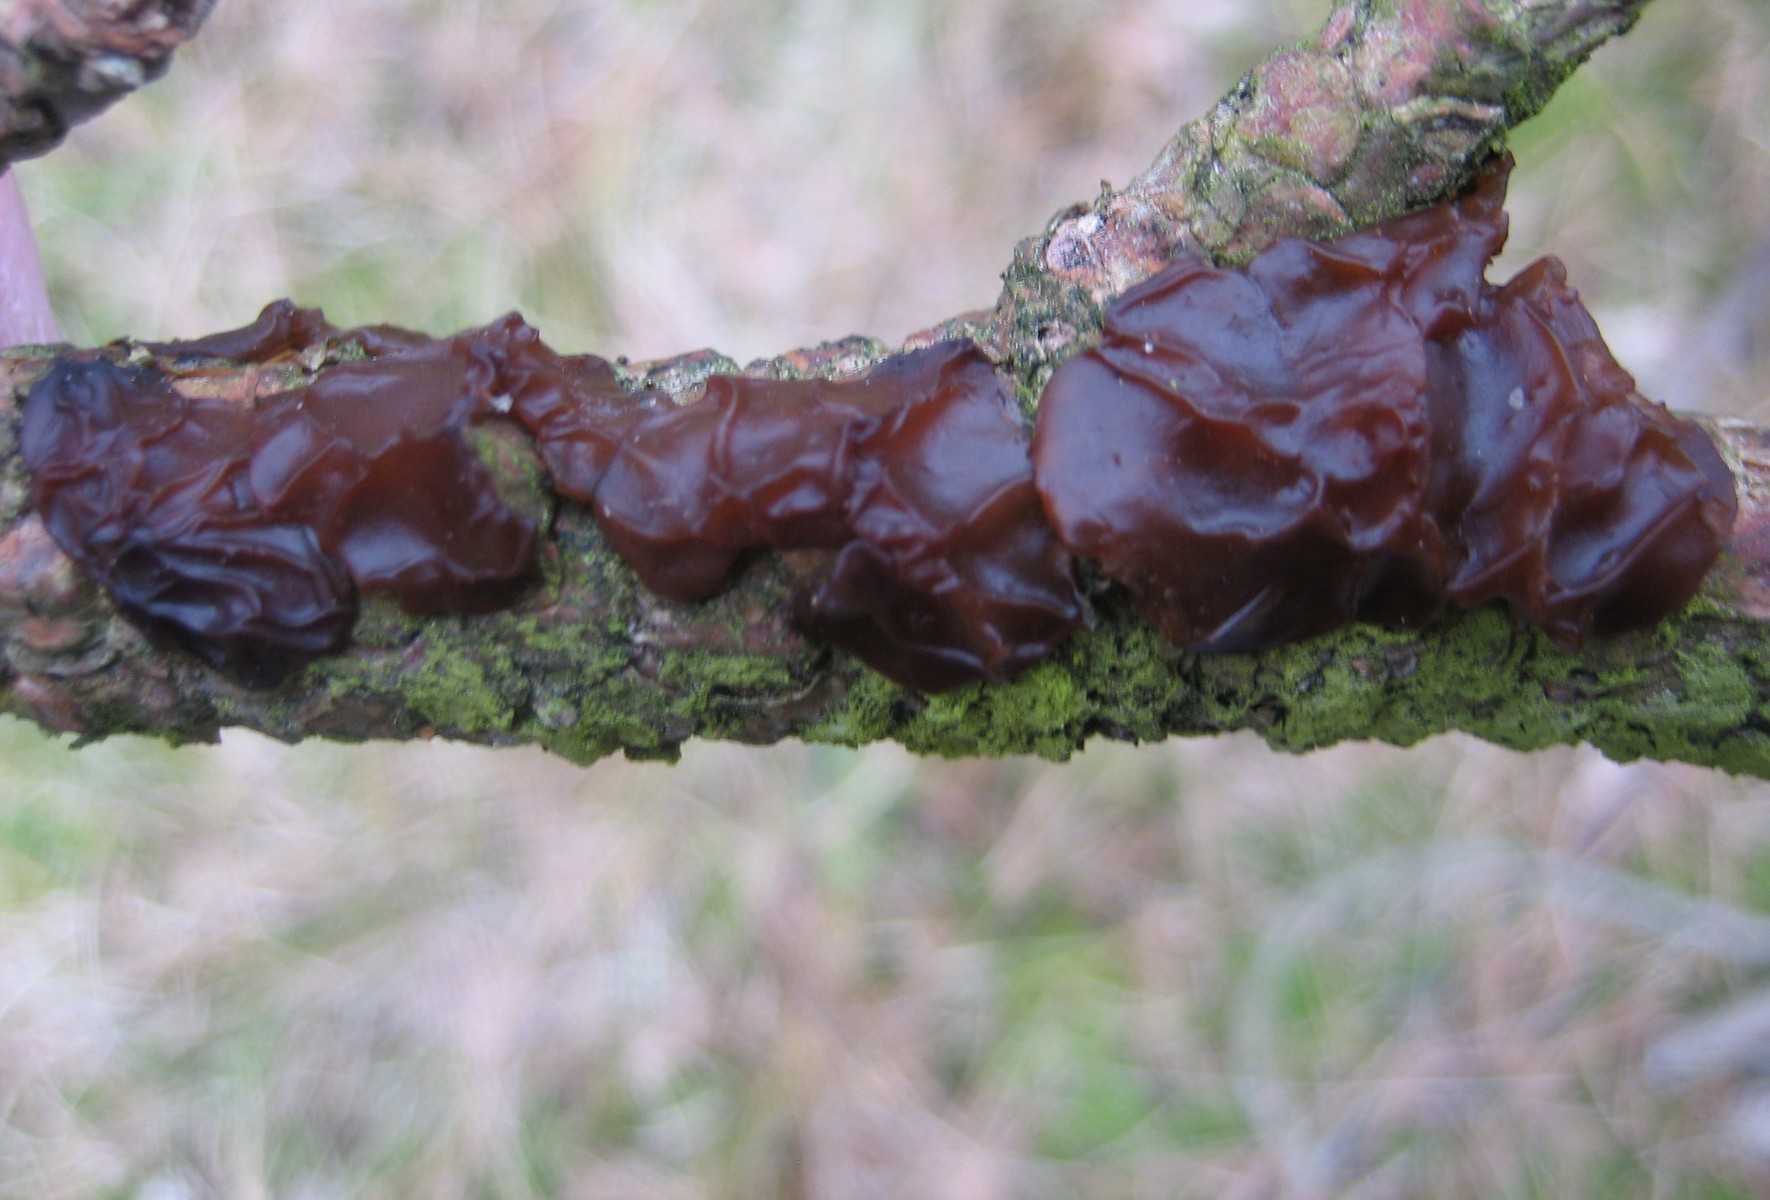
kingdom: Fungi
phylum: Basidiomycota
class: Agaricomycetes
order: Auriculariales
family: Auriculariaceae
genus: Exidia
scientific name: Exidia saccharina
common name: kandis-bævretop
